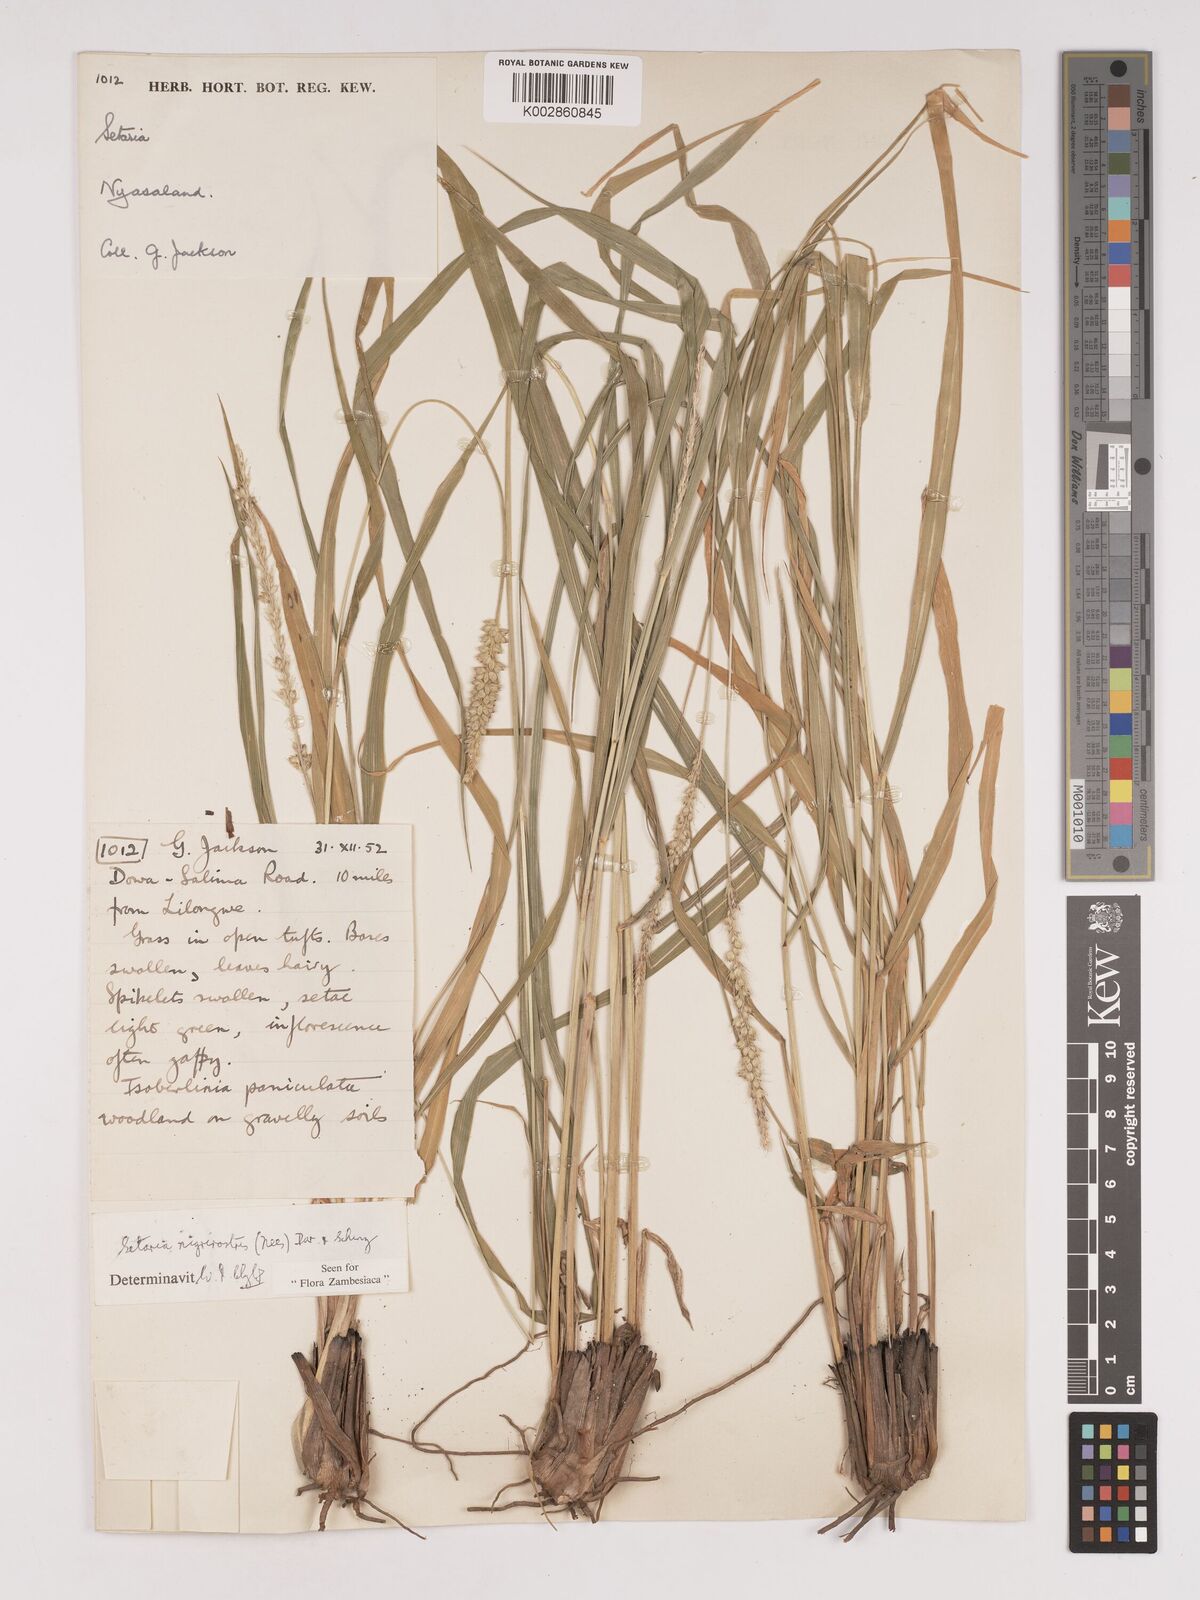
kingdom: Plantae
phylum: Tracheophyta
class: Liliopsida
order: Poales
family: Poaceae
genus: Setaria
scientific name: Setaria nigrirostris
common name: Black bristlegrass
